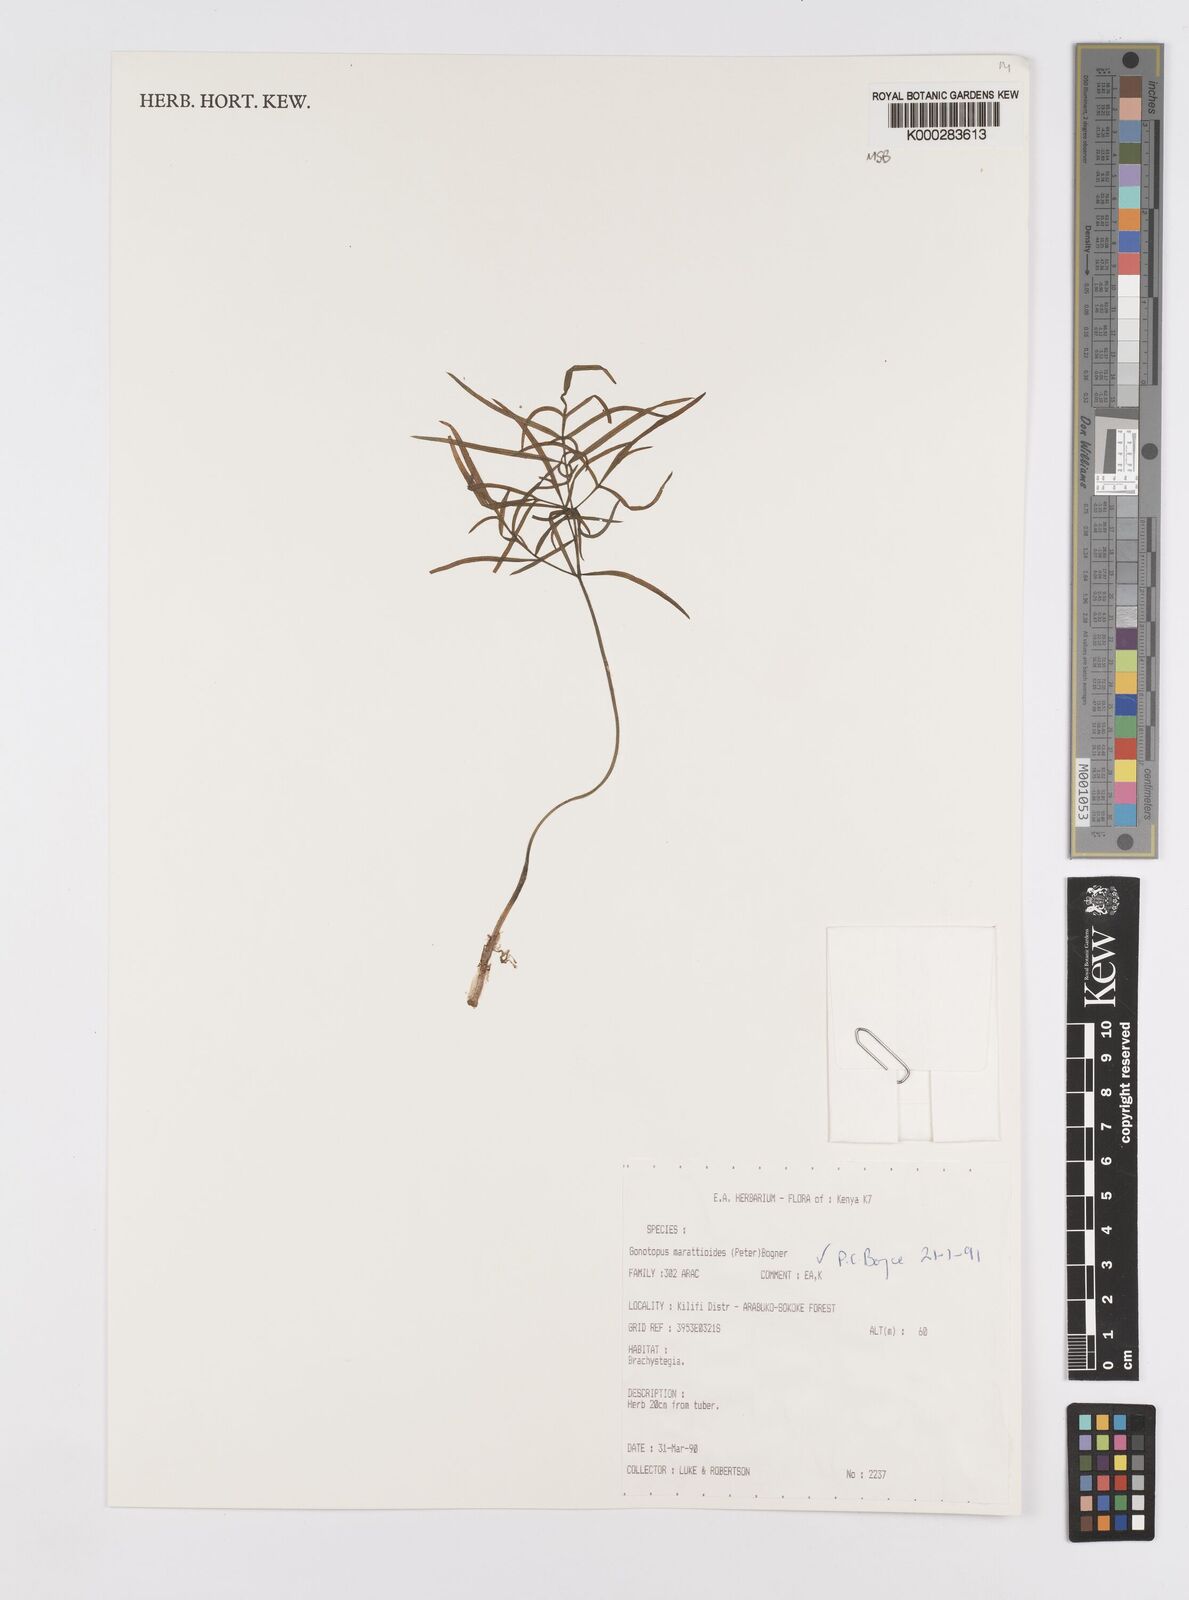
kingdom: Plantae
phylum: Tracheophyta
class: Liliopsida
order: Alismatales
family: Araceae
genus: Gonatopus
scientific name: Gonatopus marattioides
